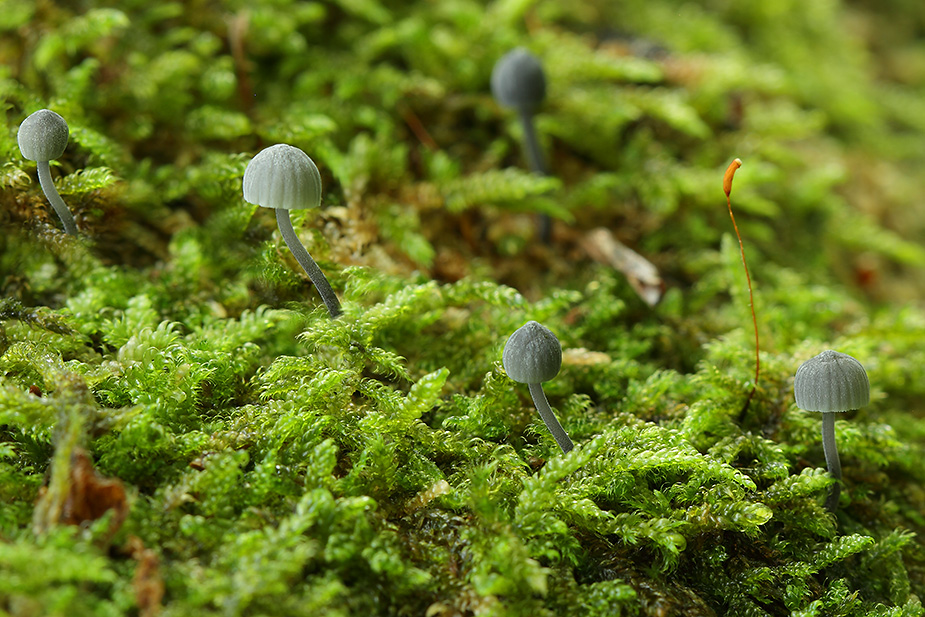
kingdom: Fungi
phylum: Basidiomycota
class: Agaricomycetes
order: Agaricales
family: Mycenaceae
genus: Mycena
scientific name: Mycena pseudocorticola
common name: gråblå bark-huesvamp
